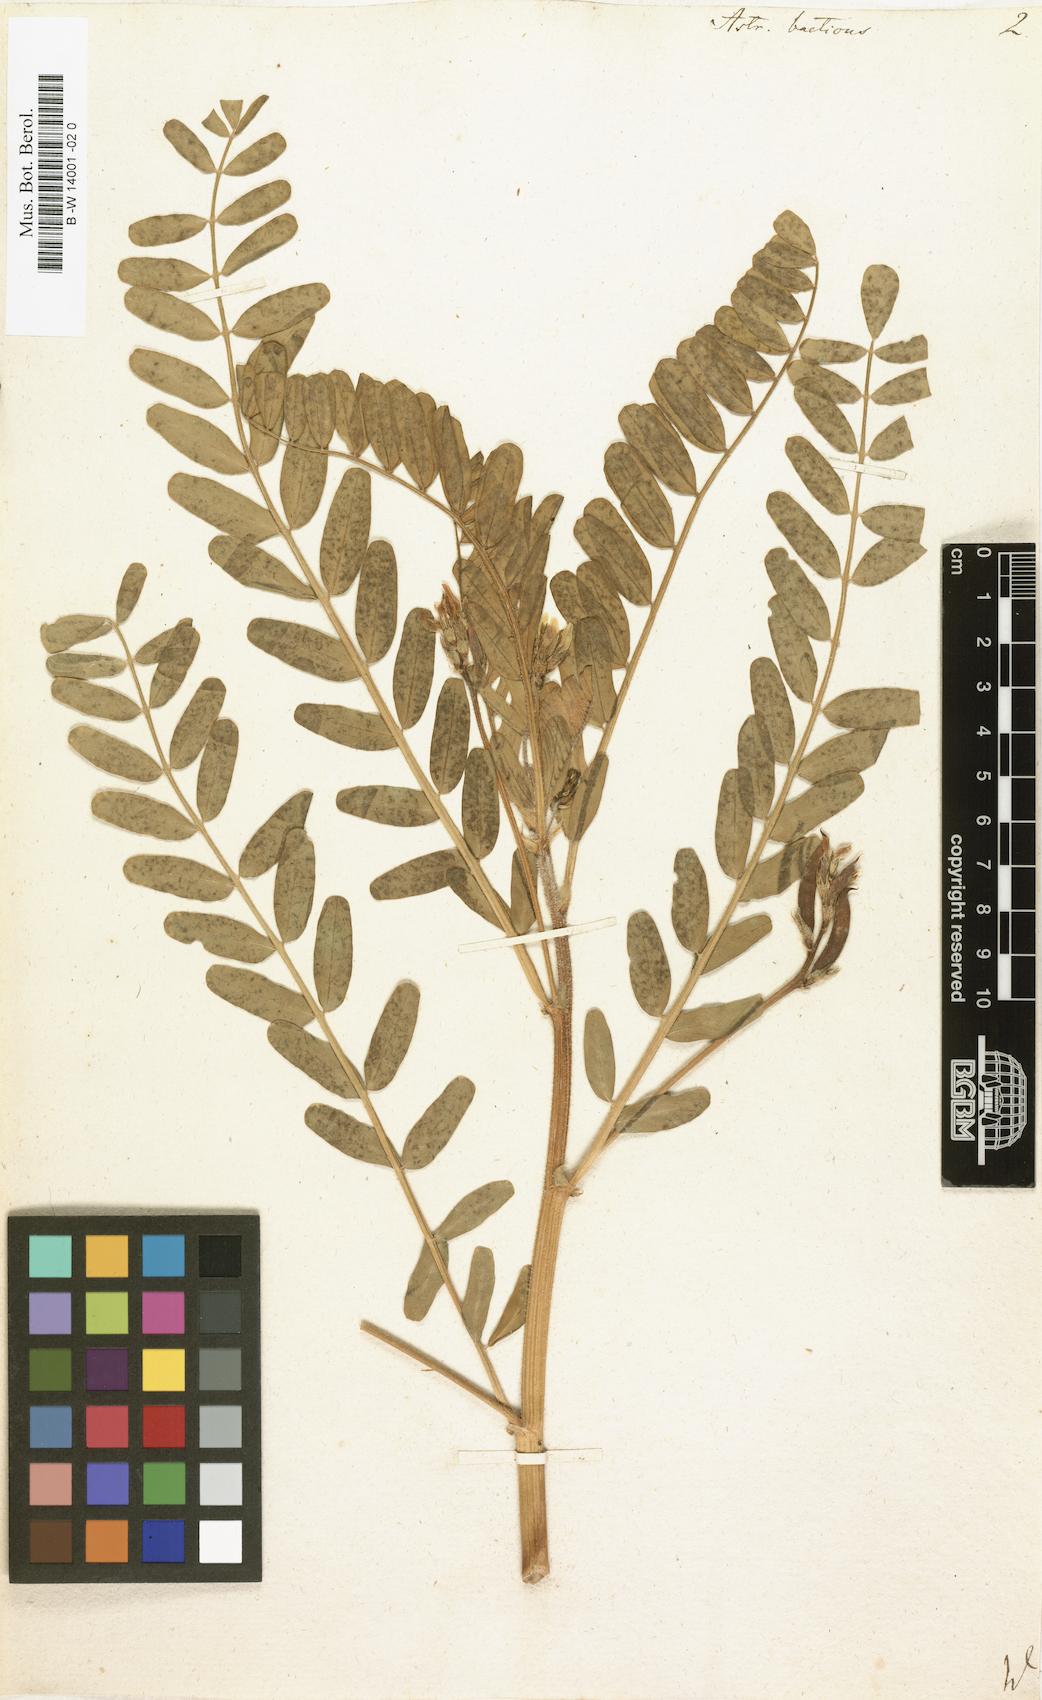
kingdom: Plantae
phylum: Tracheophyta
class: Magnoliopsida
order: Fabales
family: Fabaceae
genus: Astragalus
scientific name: Astragalus boeticus
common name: Milk-vetch
